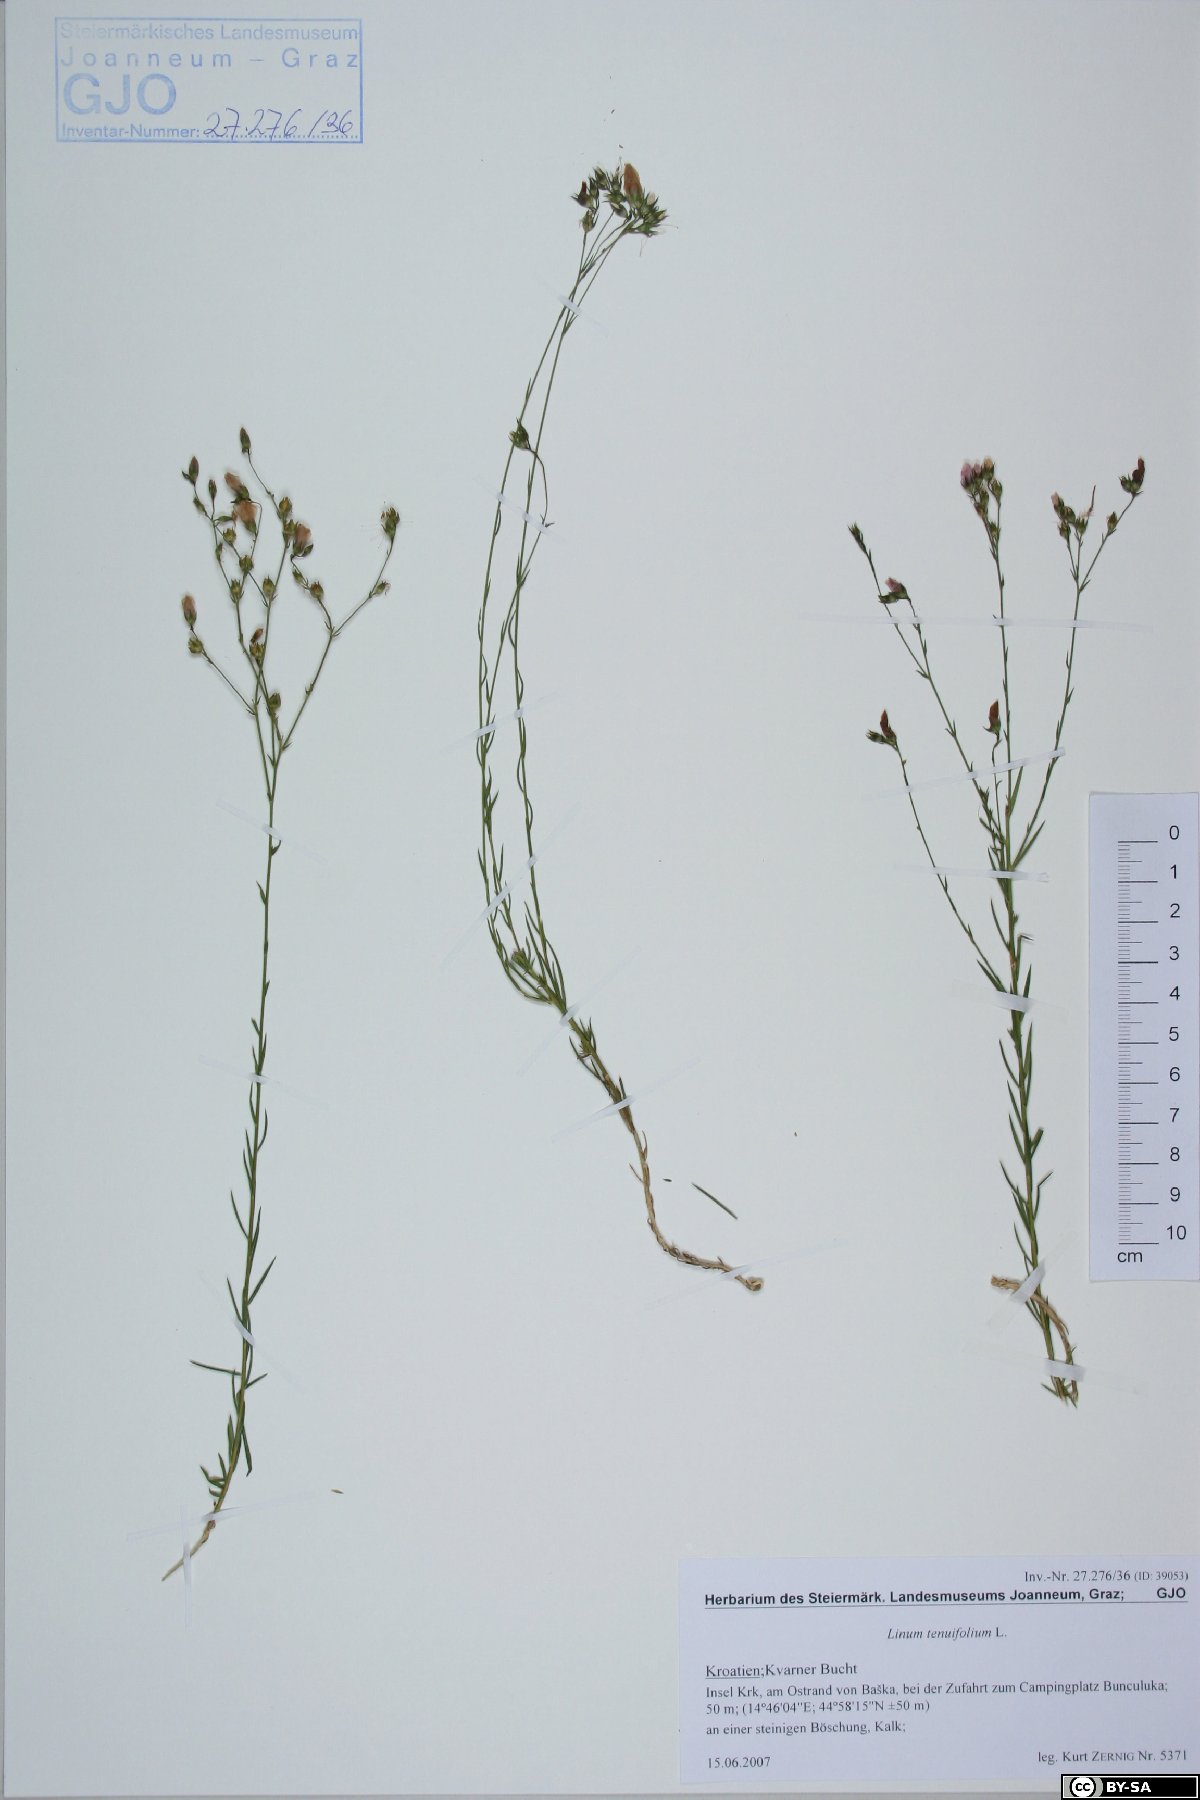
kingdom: Plantae
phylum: Tracheophyta
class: Magnoliopsida
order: Malpighiales
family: Linaceae
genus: Linum
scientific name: Linum tenuifolium
